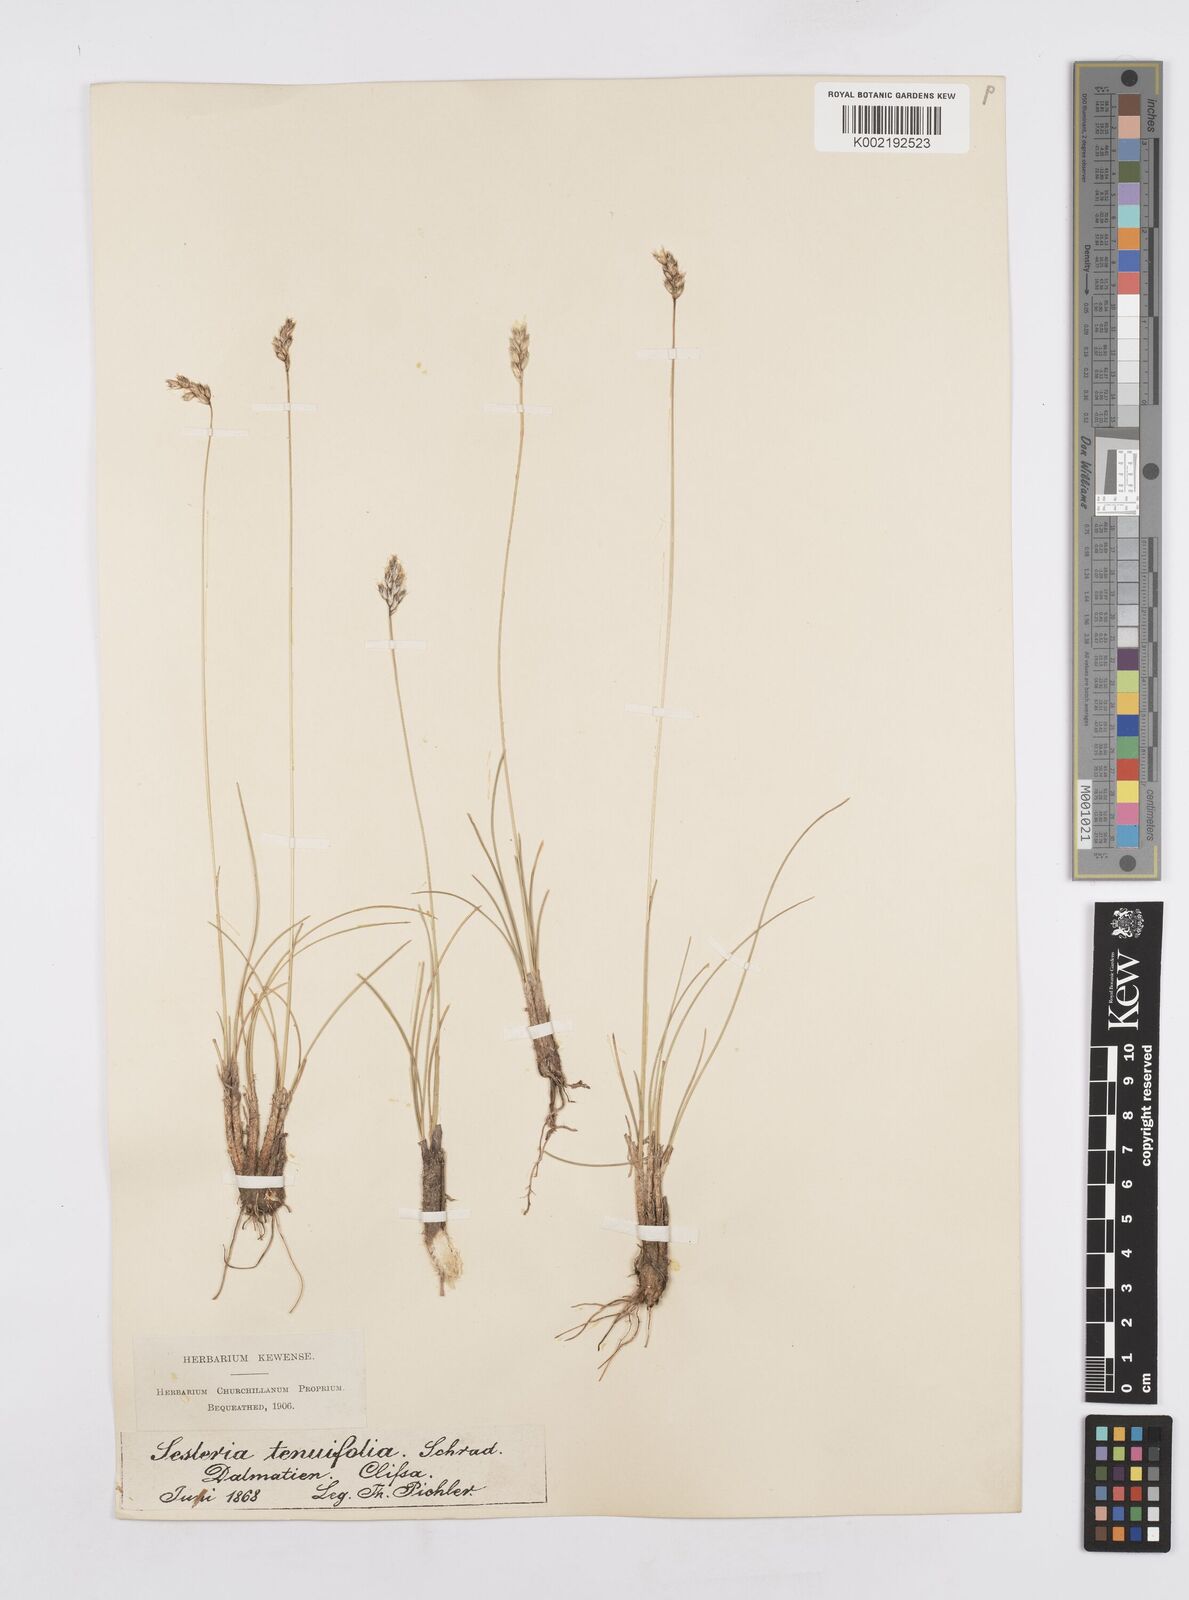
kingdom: Plantae
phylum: Tracheophyta
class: Liliopsida
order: Poales
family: Poaceae
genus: Sesleria
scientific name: Sesleria juncifolia
